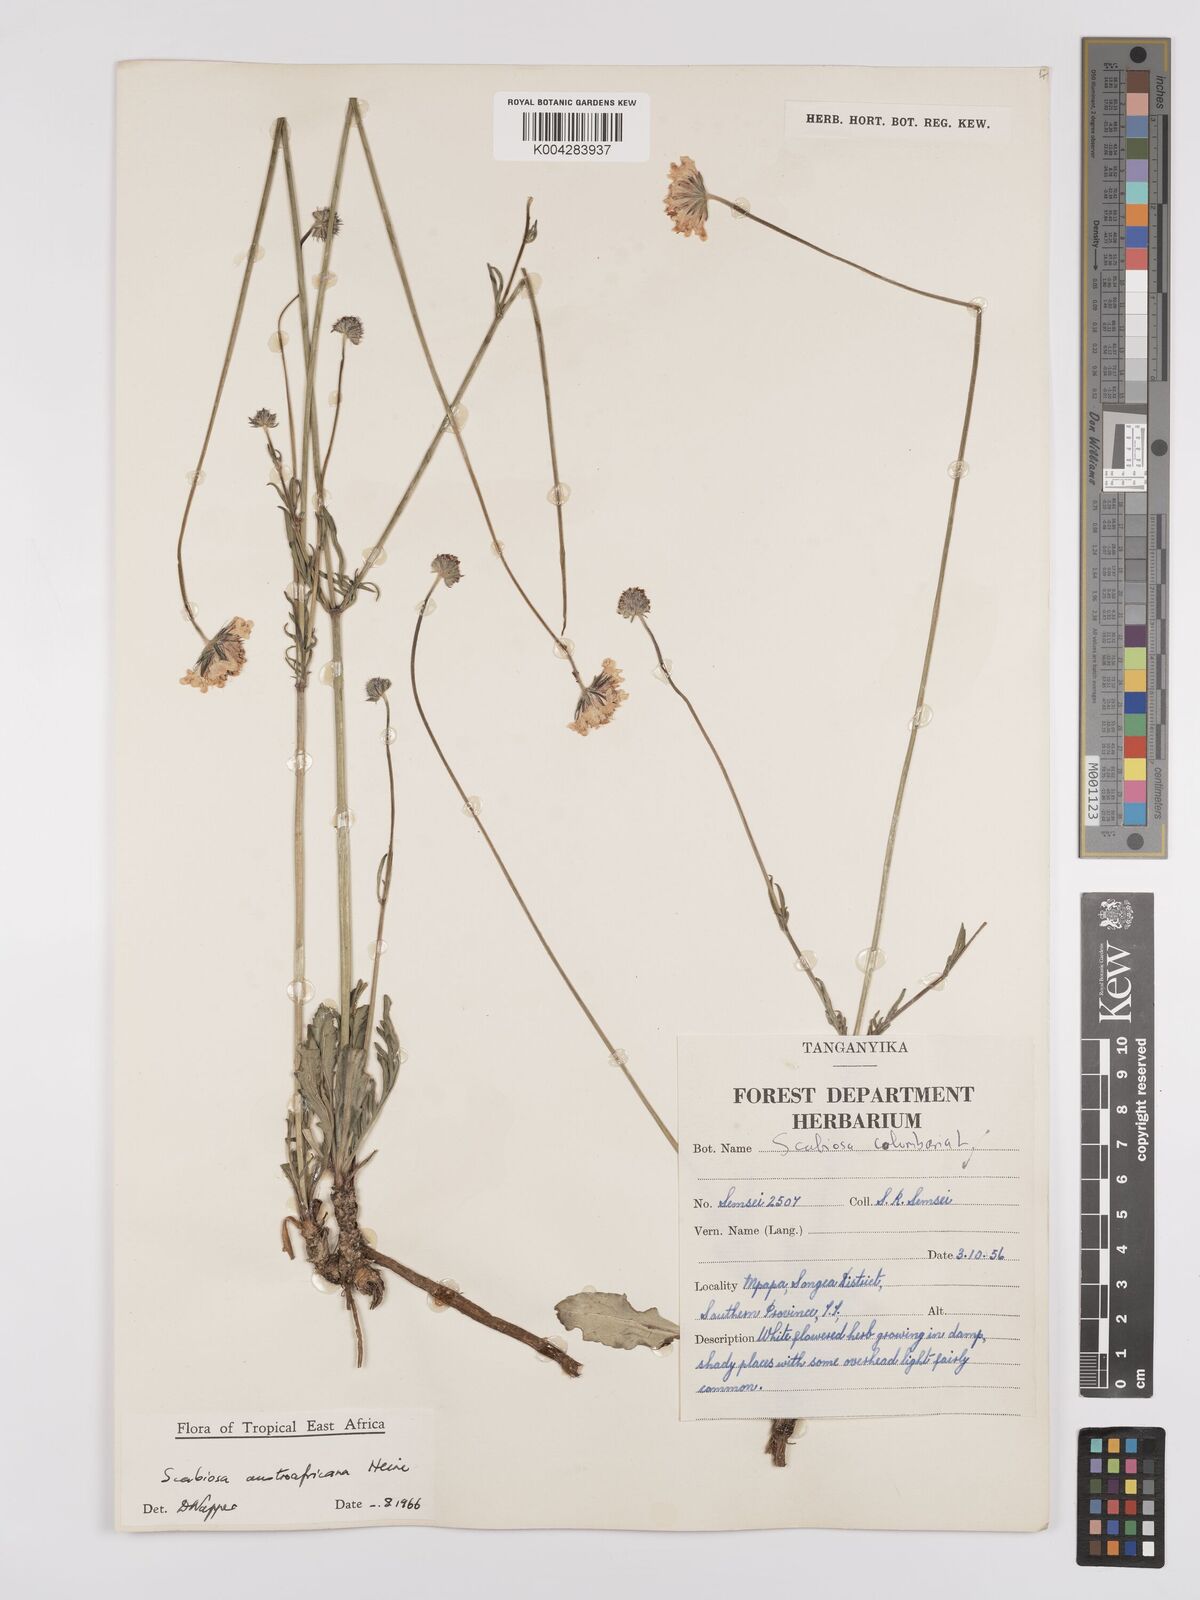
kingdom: Plantae
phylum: Tracheophyta
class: Magnoliopsida
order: Dipsacales
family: Caprifoliaceae
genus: Scabiosa
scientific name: Scabiosa austroafricana
